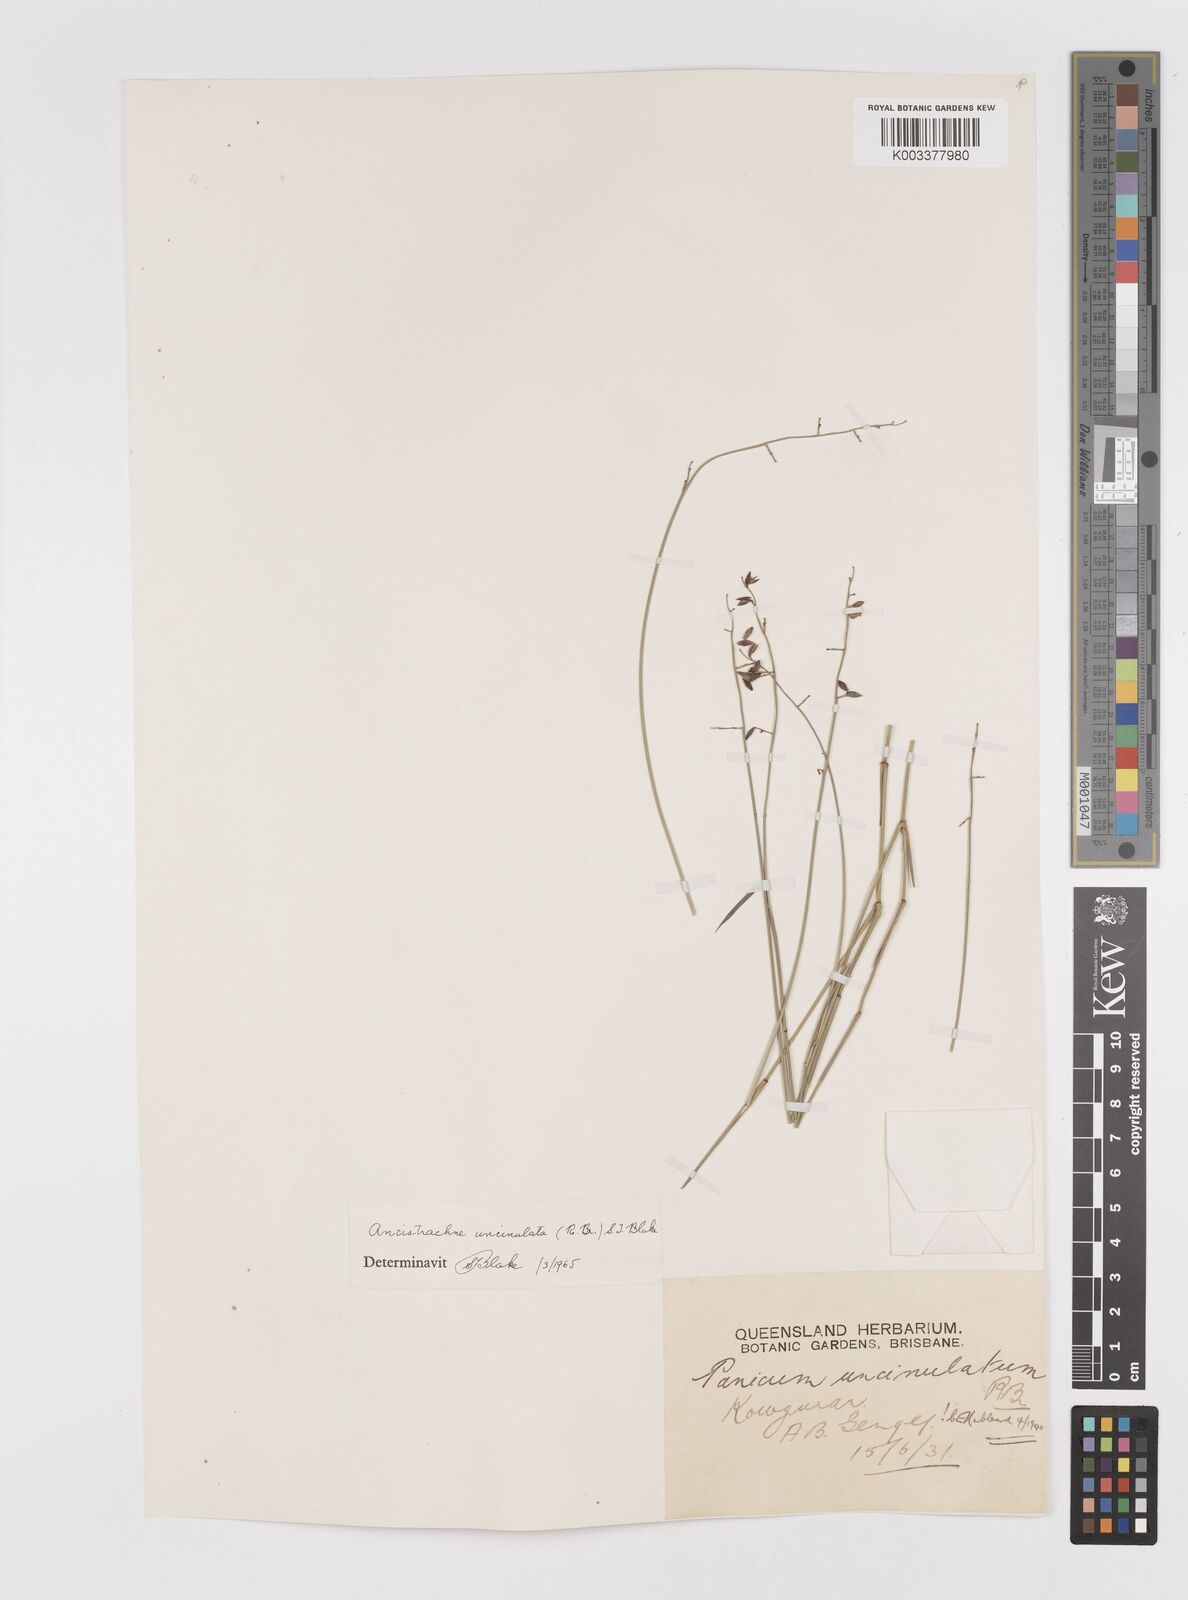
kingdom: Plantae
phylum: Tracheophyta
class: Liliopsida
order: Poales
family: Poaceae
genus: Ancistrachne
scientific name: Ancistrachne uncinulata
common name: Hooky grass
